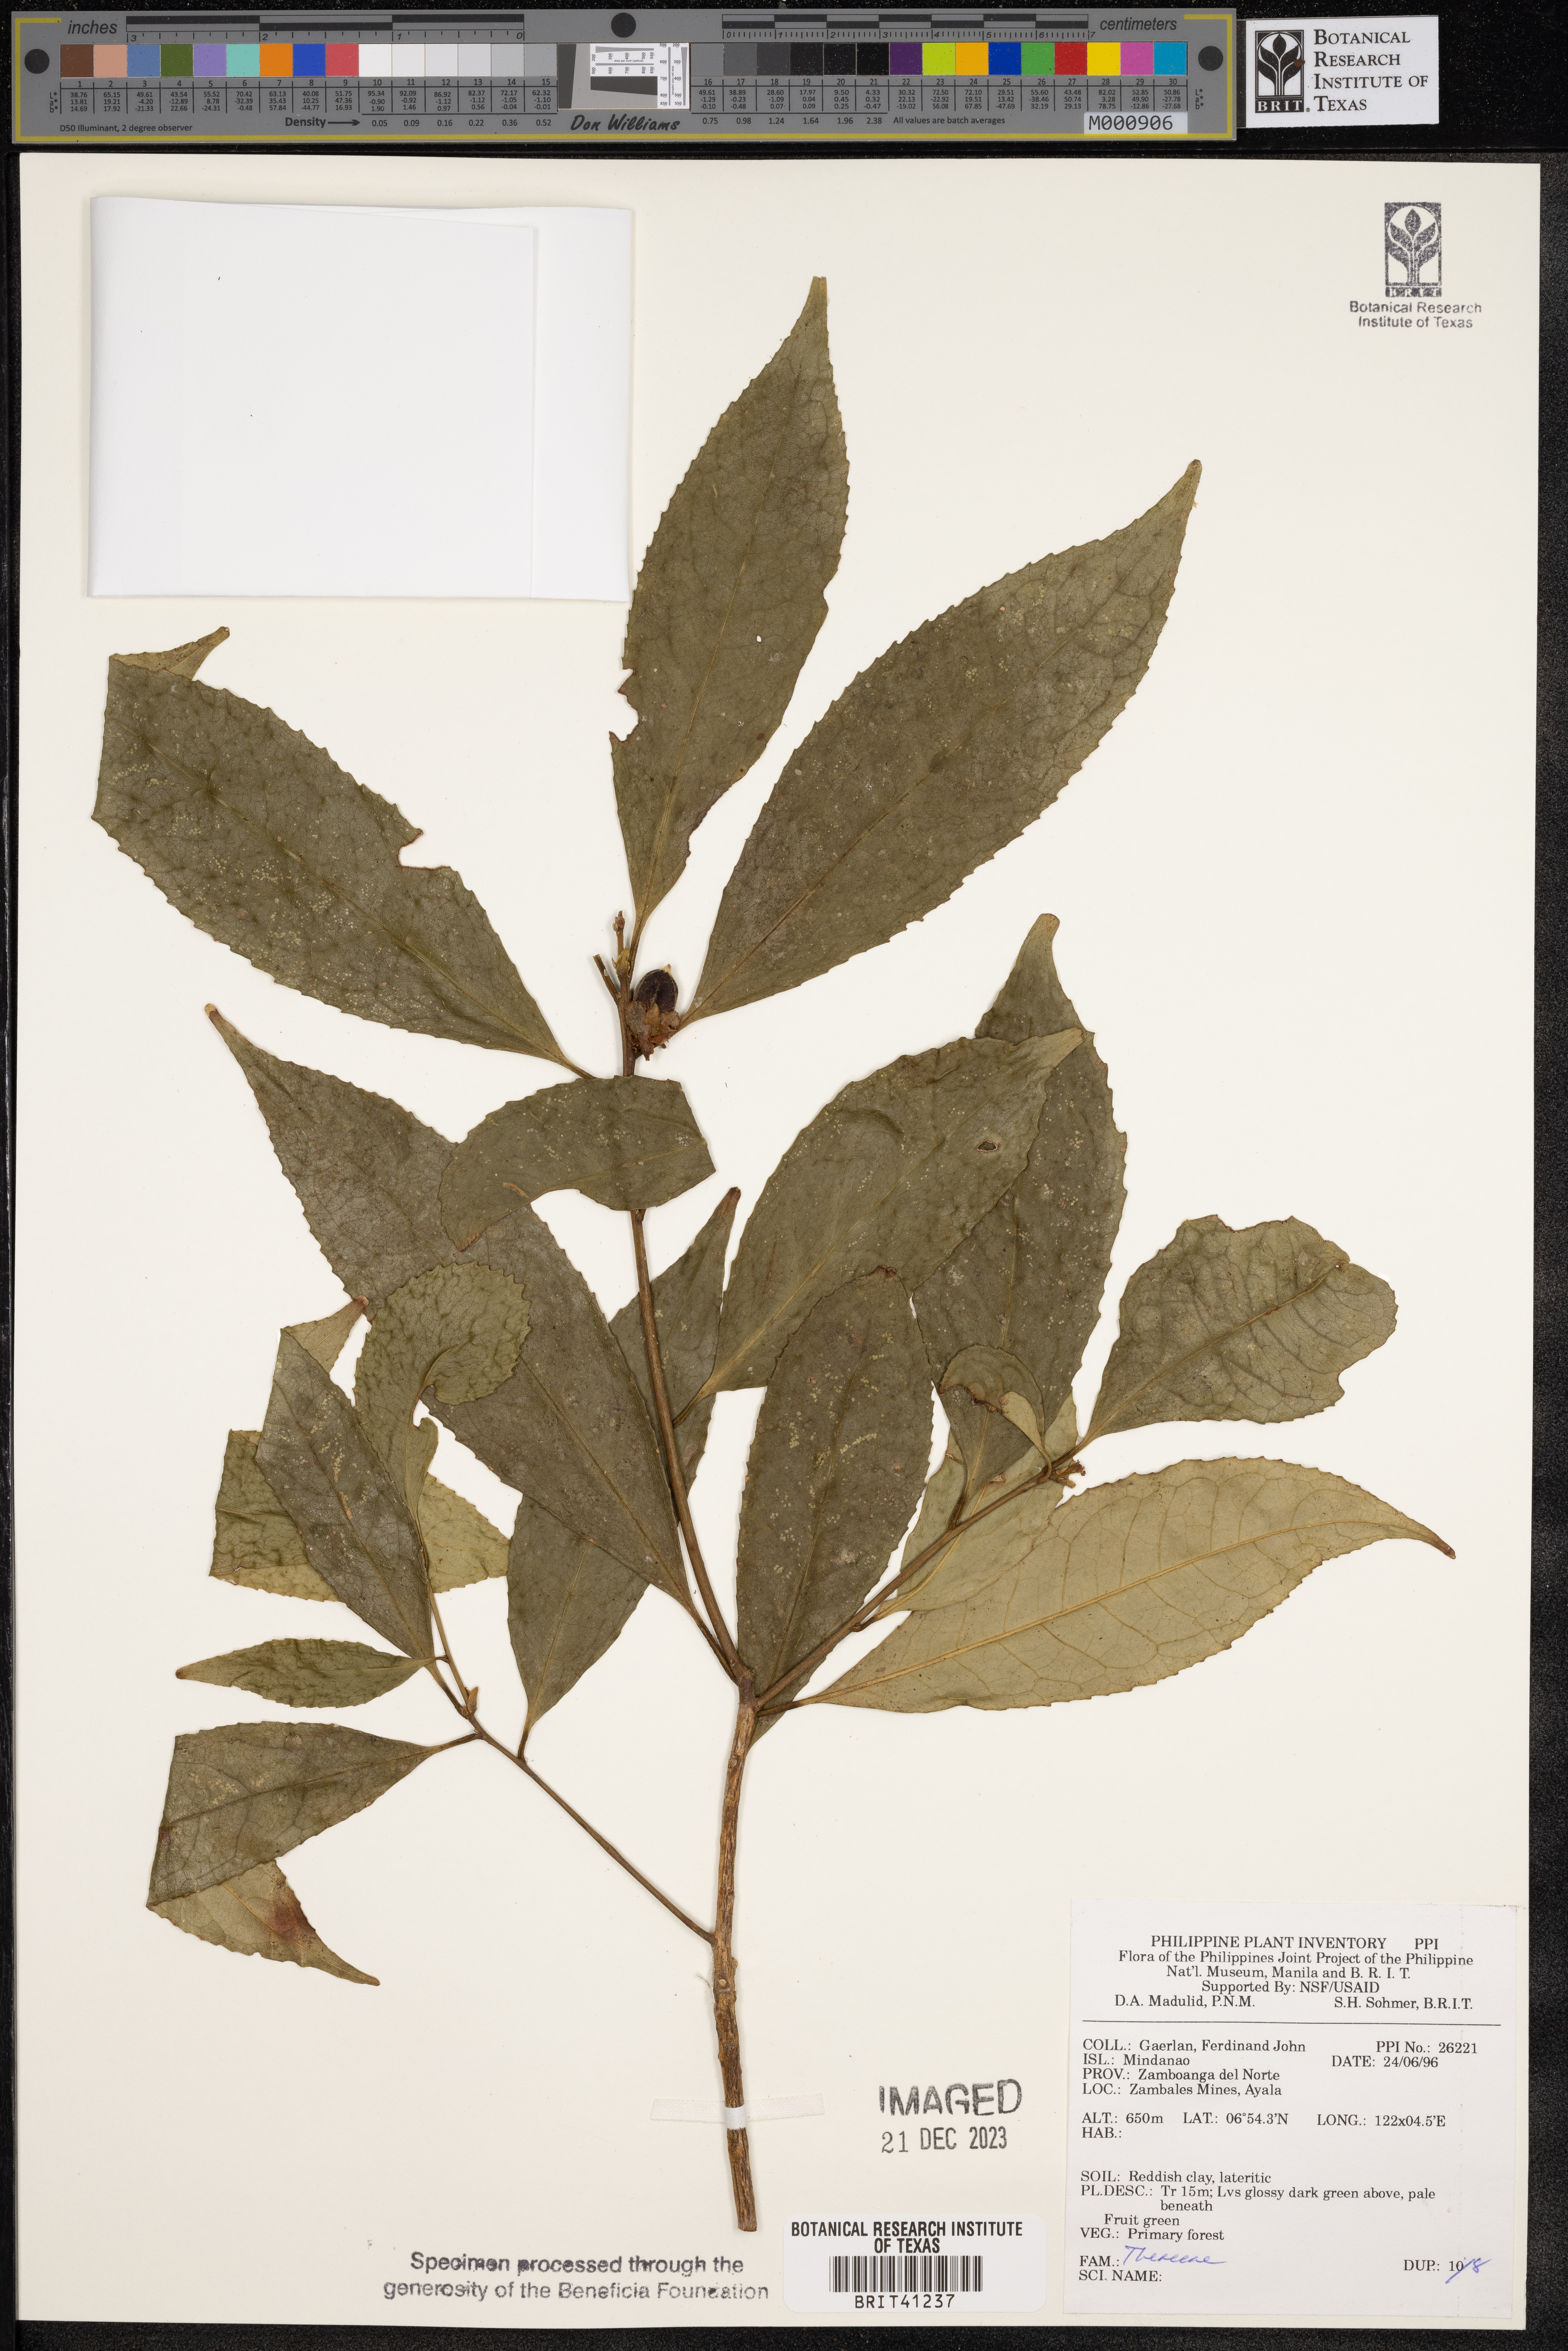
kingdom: Plantae
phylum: Tracheophyta
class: Magnoliopsida
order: Ericales
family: Theaceae
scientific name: Theaceae
